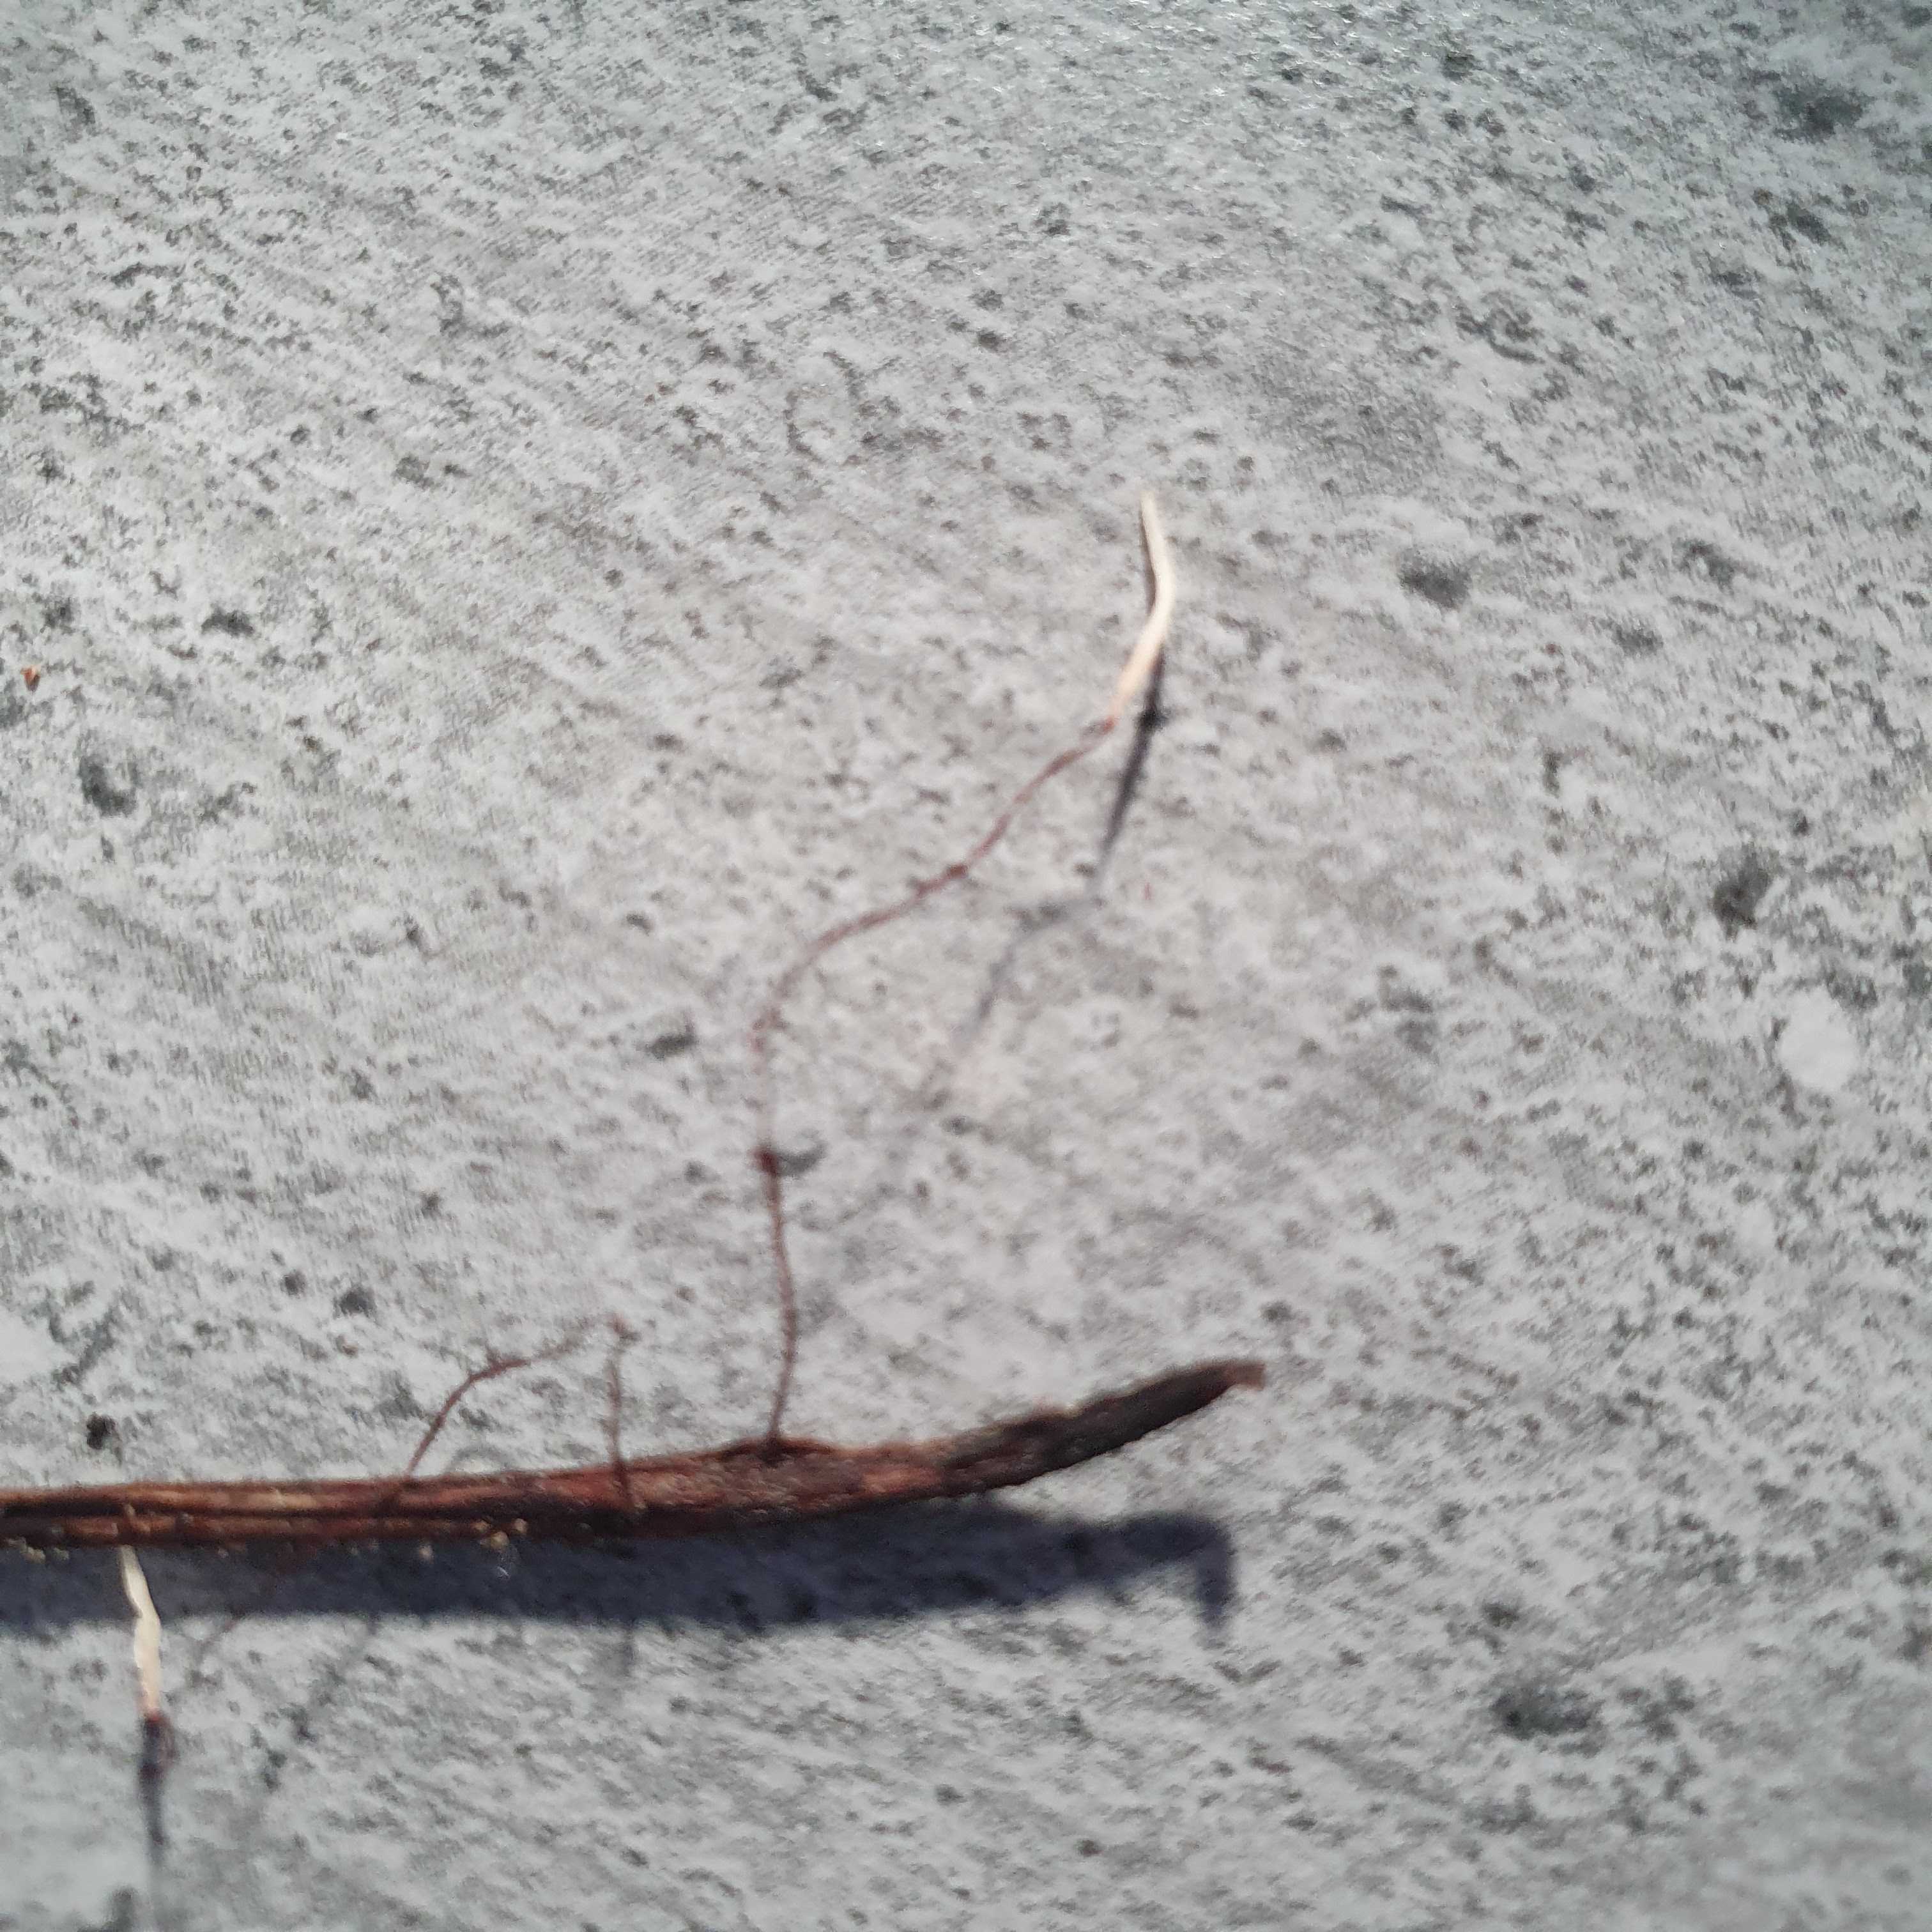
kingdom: Fungi
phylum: Basidiomycota
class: Agaricomycetes
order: Agaricales
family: Typhulaceae
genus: Typhula
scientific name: Typhula erythropus
